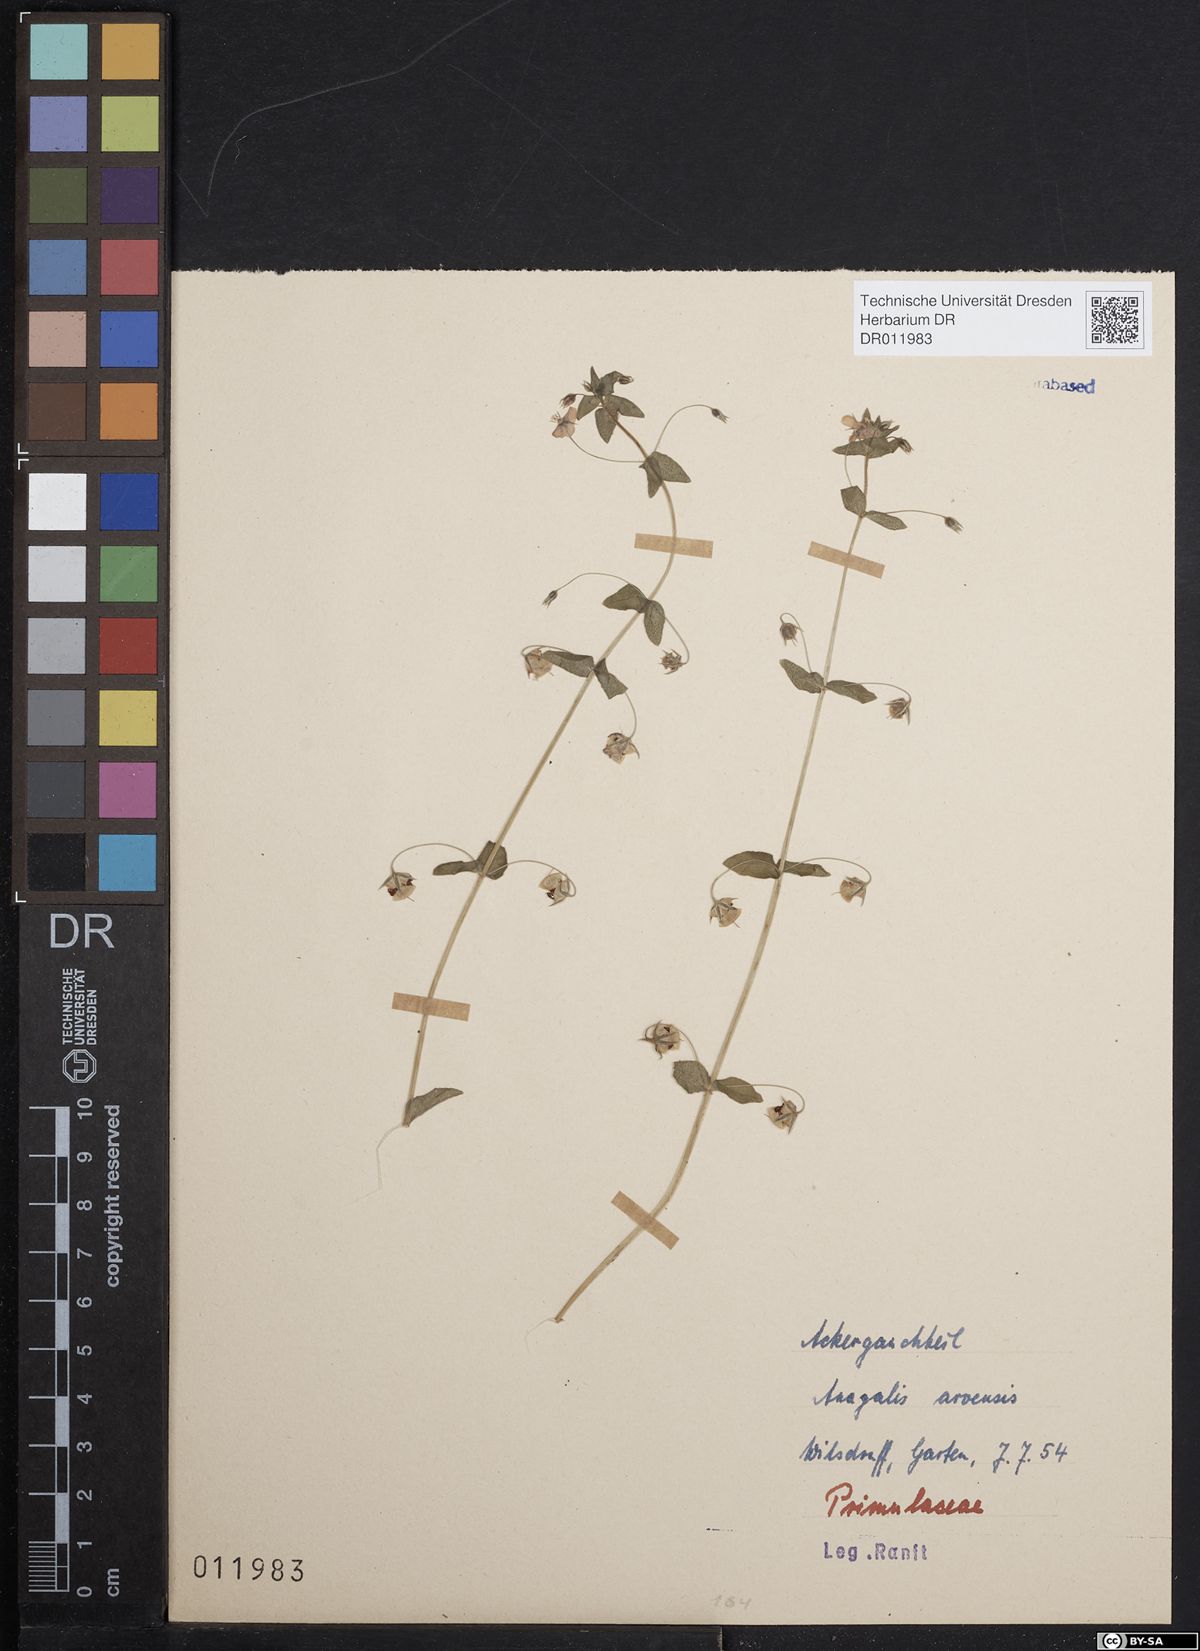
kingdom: Plantae
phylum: Tracheophyta
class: Magnoliopsida
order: Ericales
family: Primulaceae
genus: Lysimachia
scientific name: Lysimachia arvensis
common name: Scarlet pimpernel
